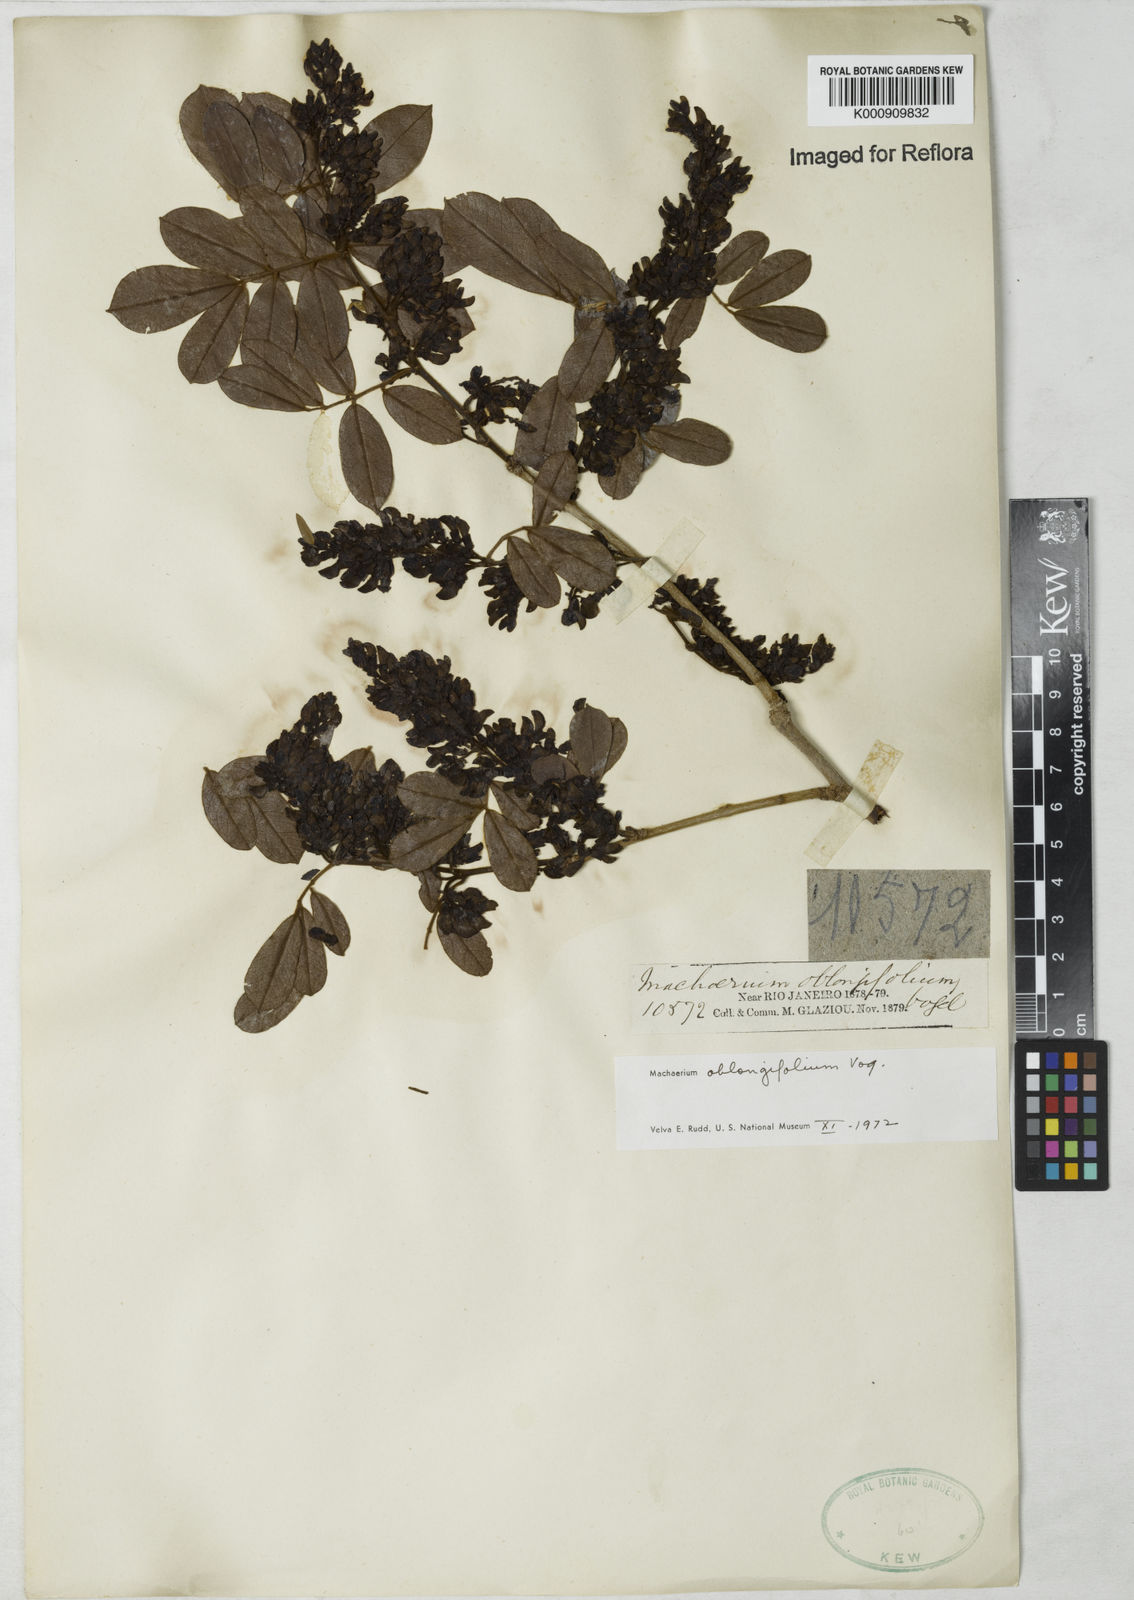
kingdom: Plantae
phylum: Tracheophyta
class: Magnoliopsida
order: Fabales
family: Fabaceae
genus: Machaerium
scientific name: Machaerium oblongifolium
